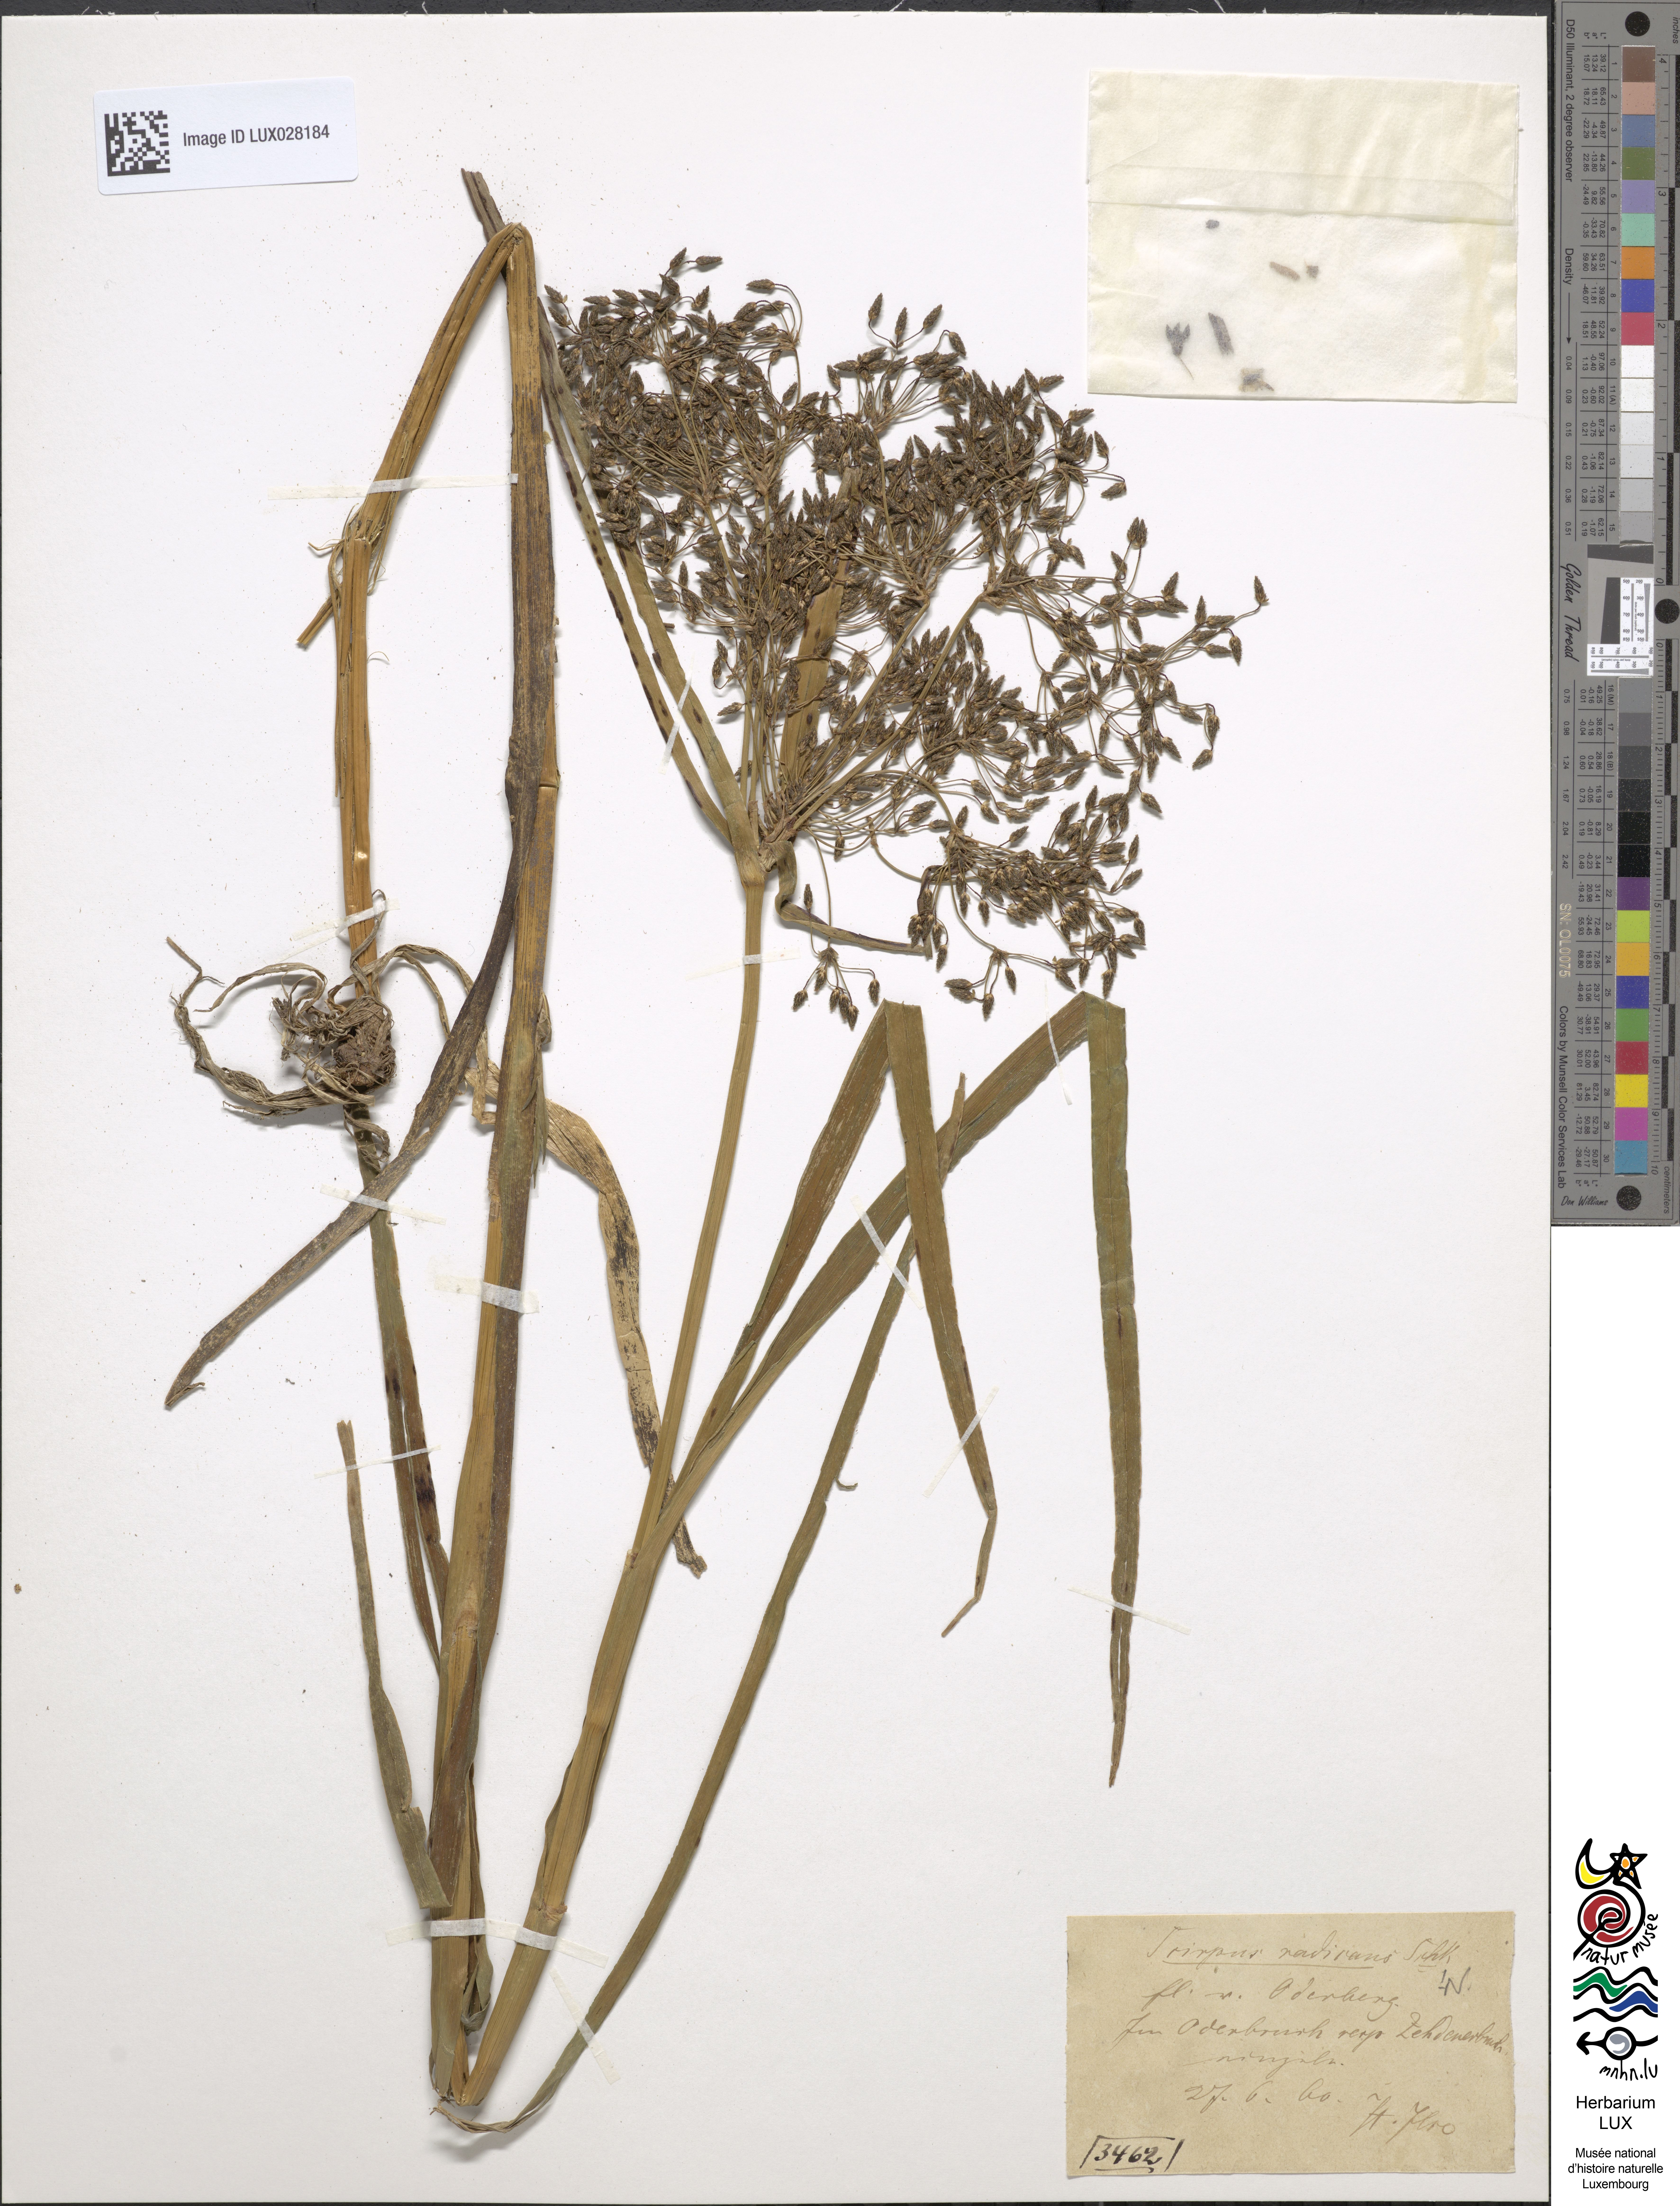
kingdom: Plantae
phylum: Tracheophyta
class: Liliopsida
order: Poales
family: Cyperaceae
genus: Scirpus
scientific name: Scirpus radicans
